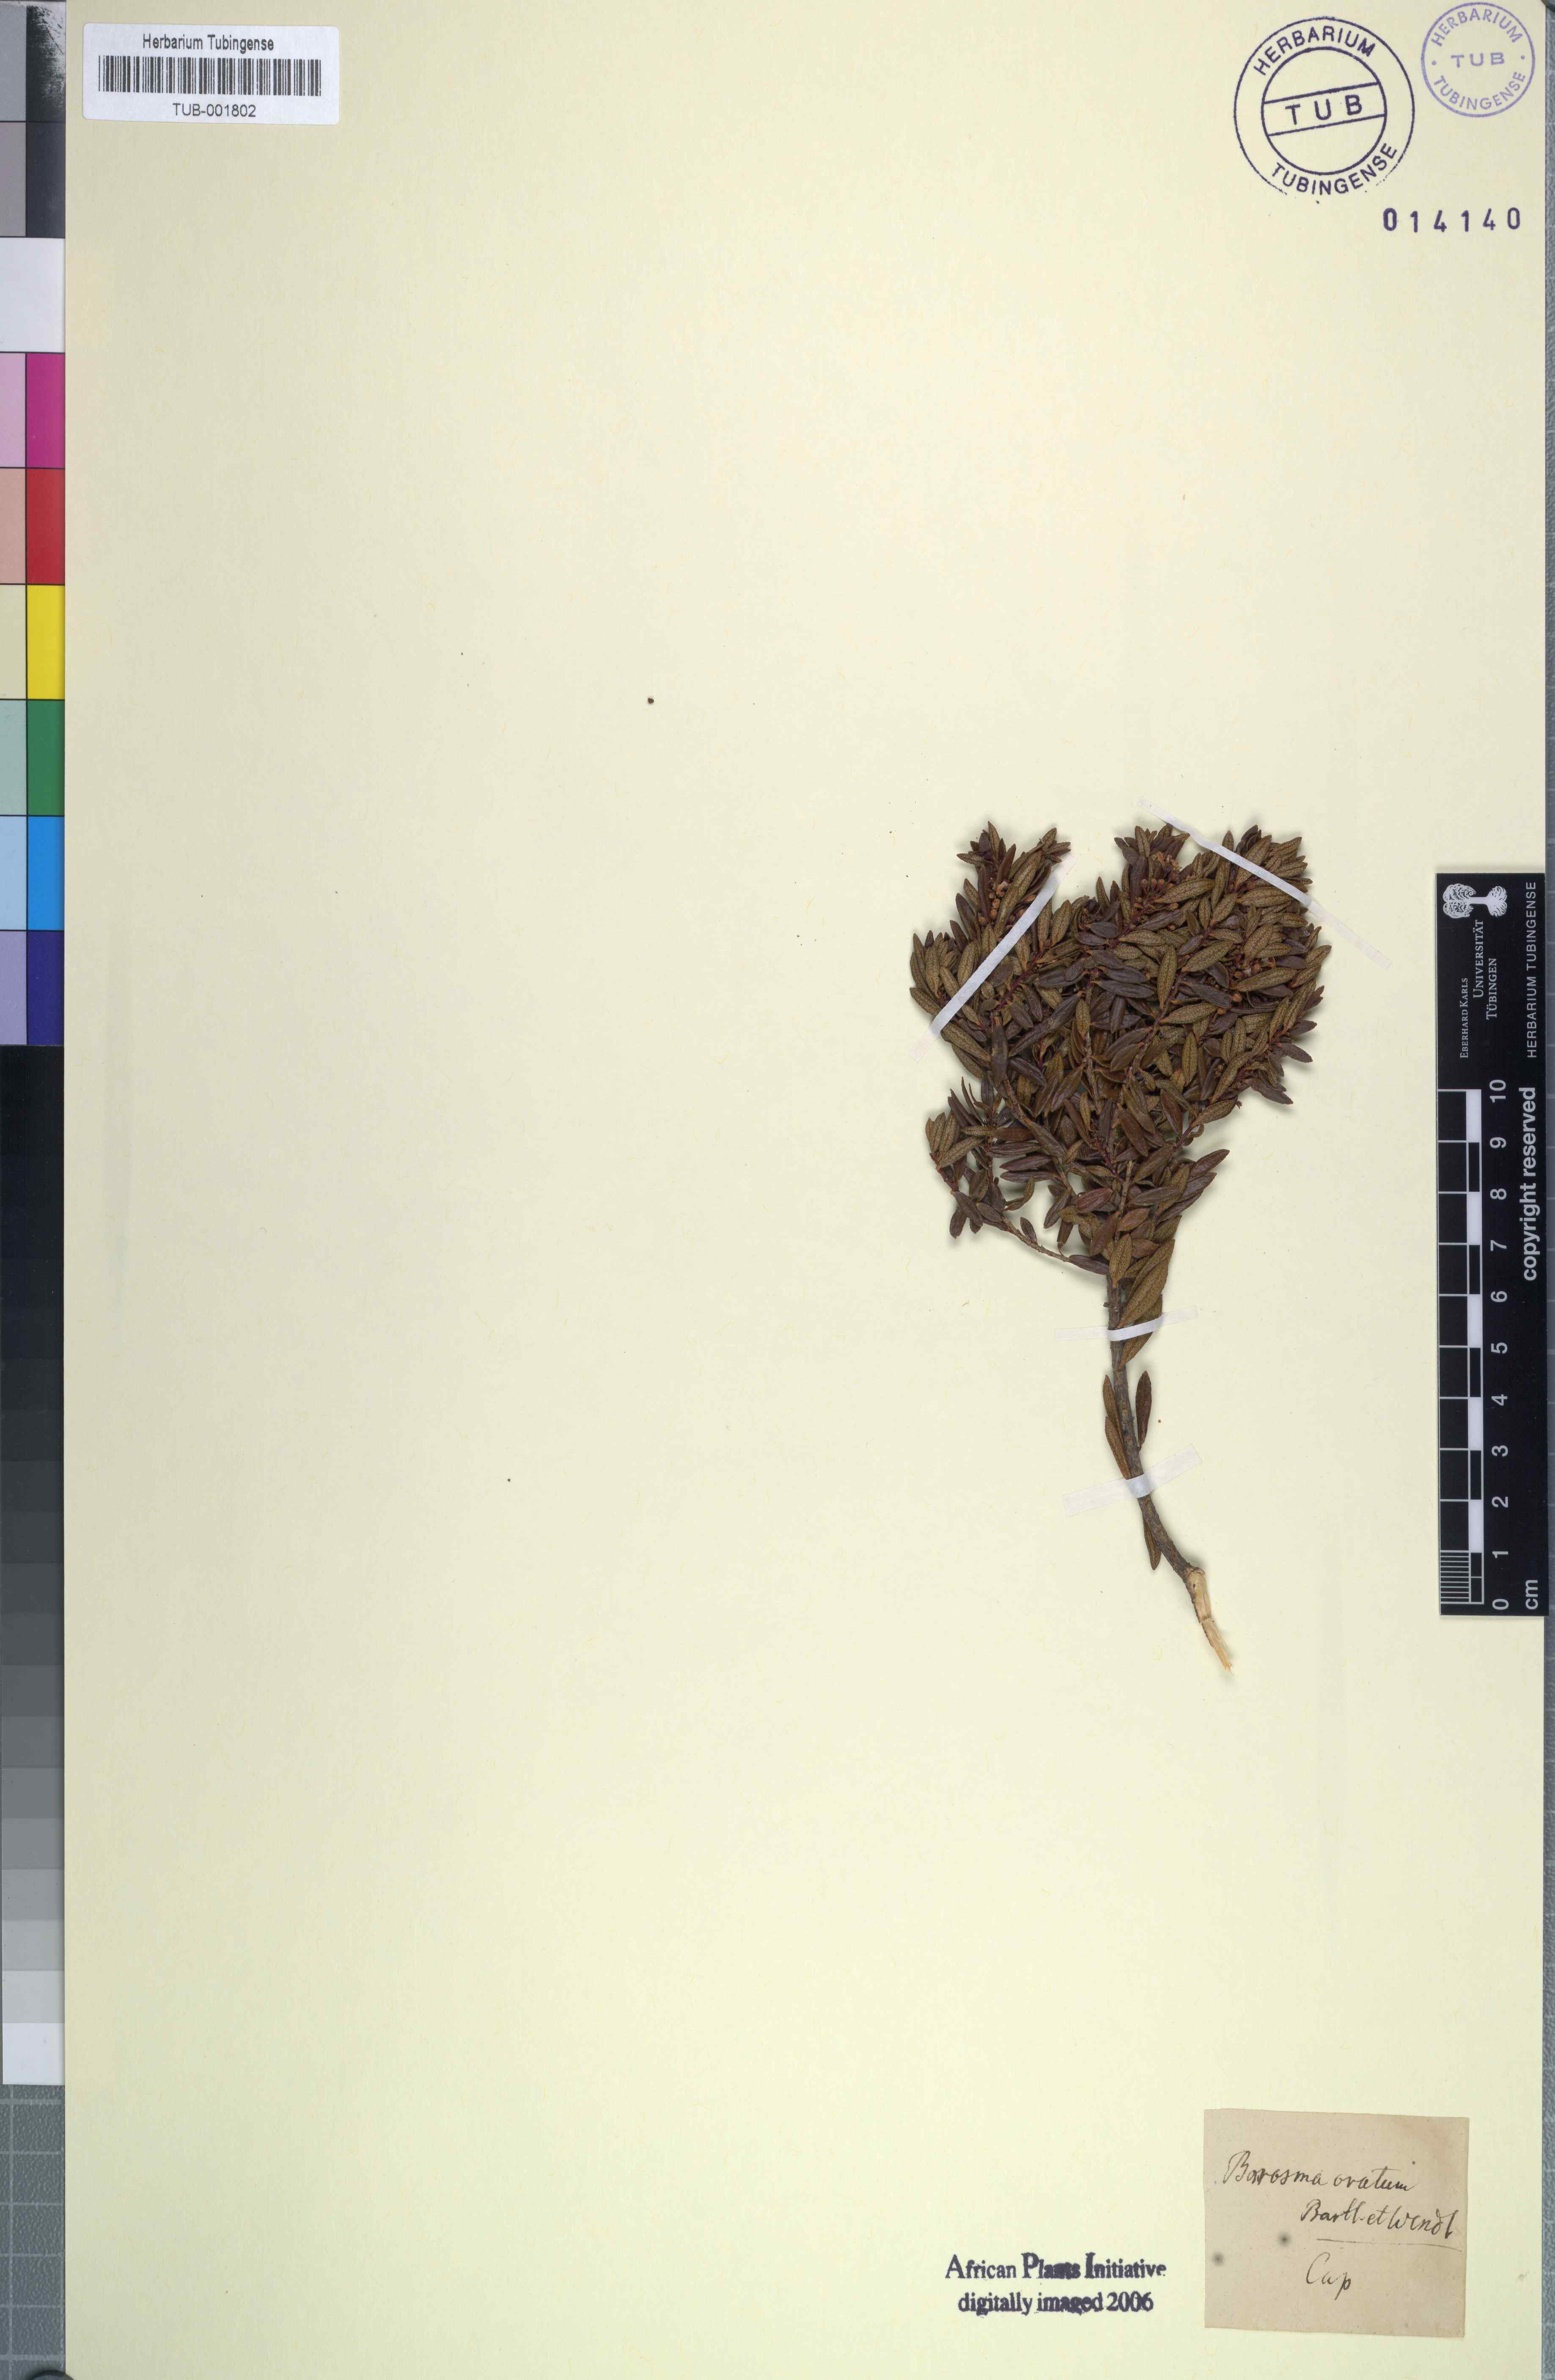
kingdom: Plantae
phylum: Tracheophyta
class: Magnoliopsida
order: Sapindales
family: Rutaceae
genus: Agathosma
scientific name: Agathosma ovata
